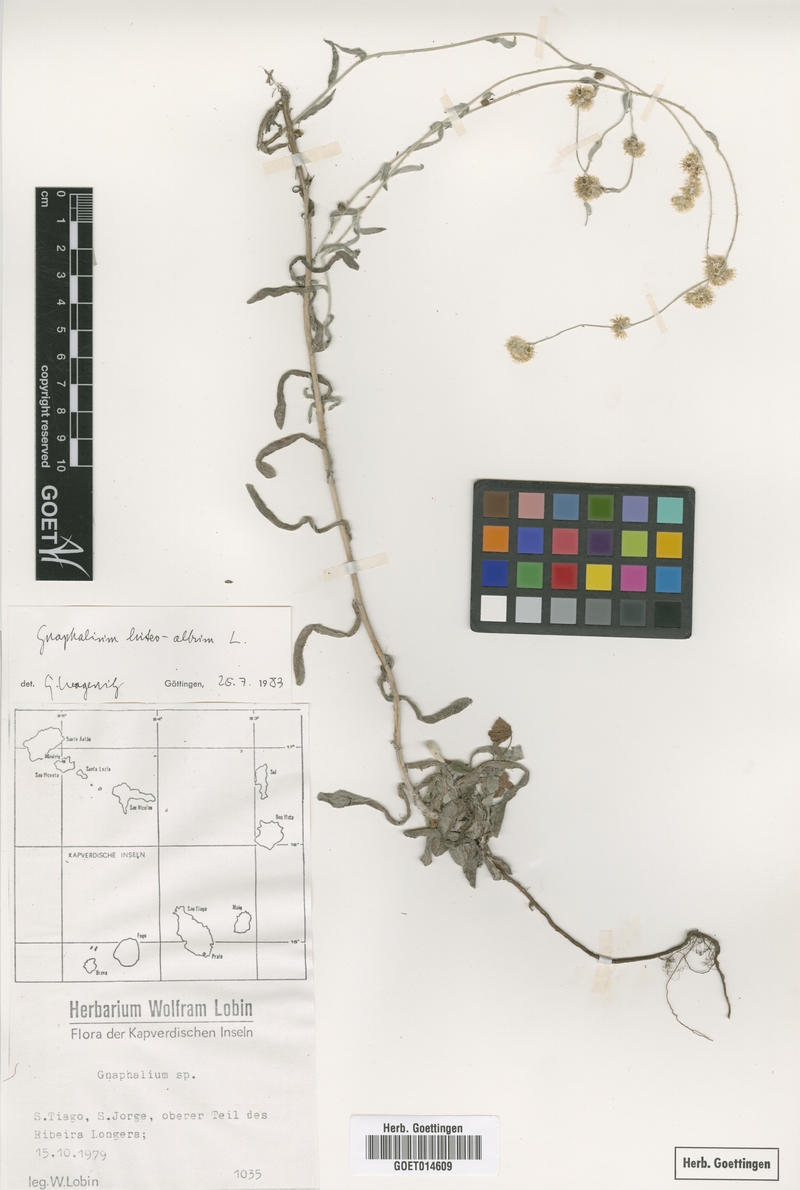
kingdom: Plantae
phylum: Tracheophyta
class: Magnoliopsida
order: Asterales
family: Asteraceae
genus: Helichrysum
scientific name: Helichrysum luteoalbum
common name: Daisy
